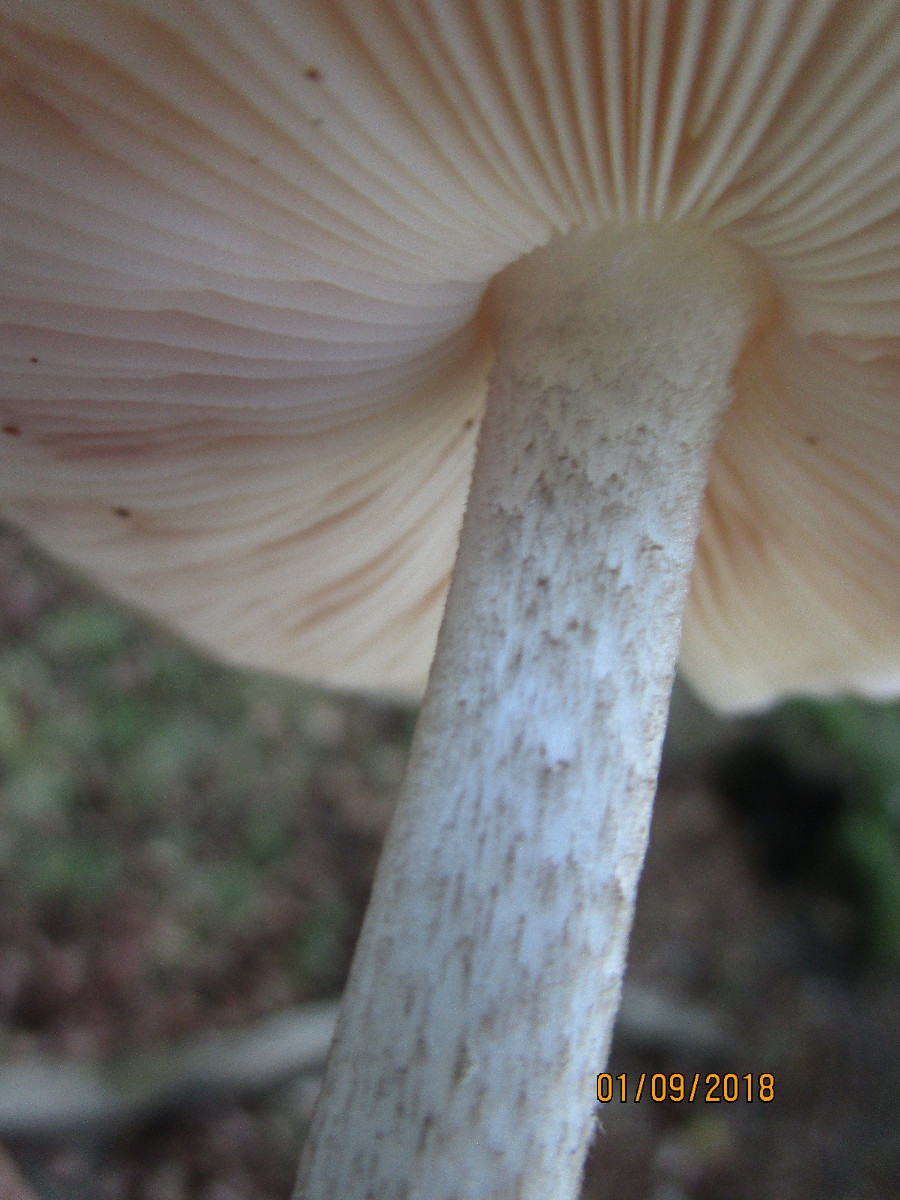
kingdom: Fungi
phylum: Basidiomycota
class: Agaricomycetes
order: Agaricales
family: Pluteaceae
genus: Pluteus
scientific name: Pluteus cervinus
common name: sodfarvet skærmhat
